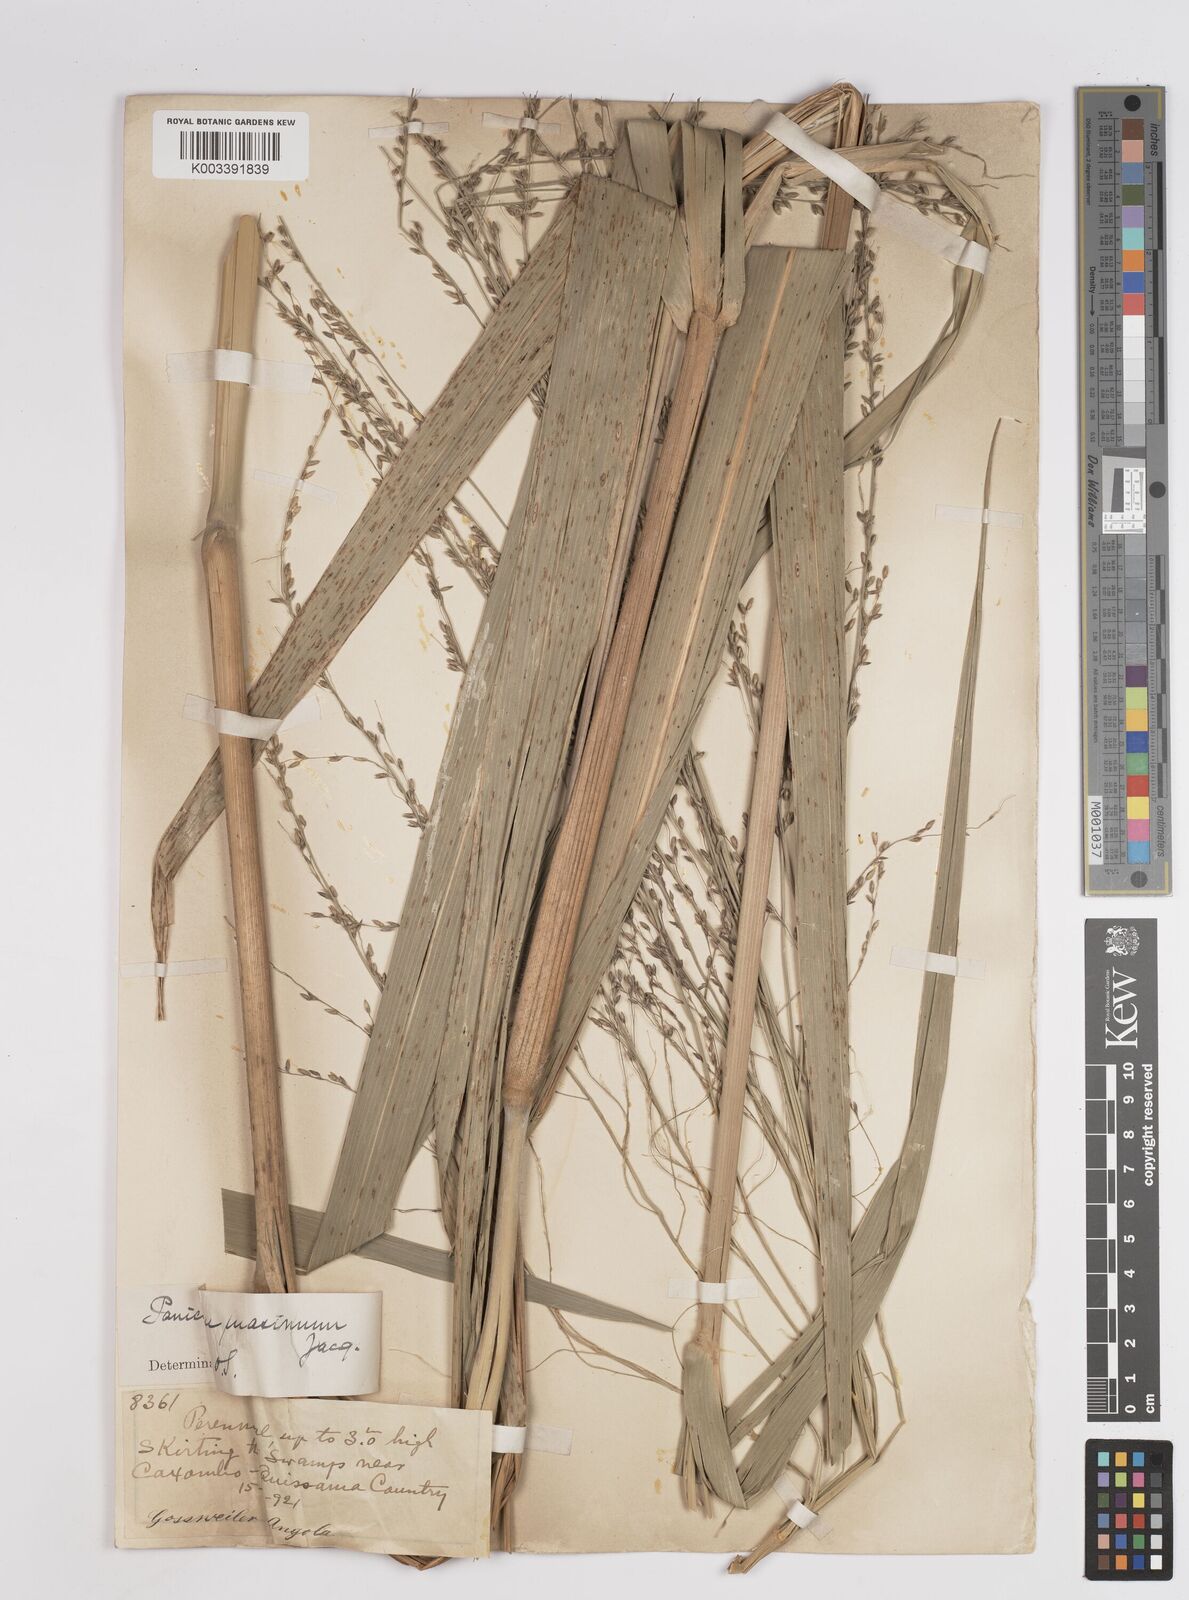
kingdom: Plantae
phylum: Tracheophyta
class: Liliopsida
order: Poales
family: Poaceae
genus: Megathyrsus
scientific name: Megathyrsus maximus
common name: Guineagrass
